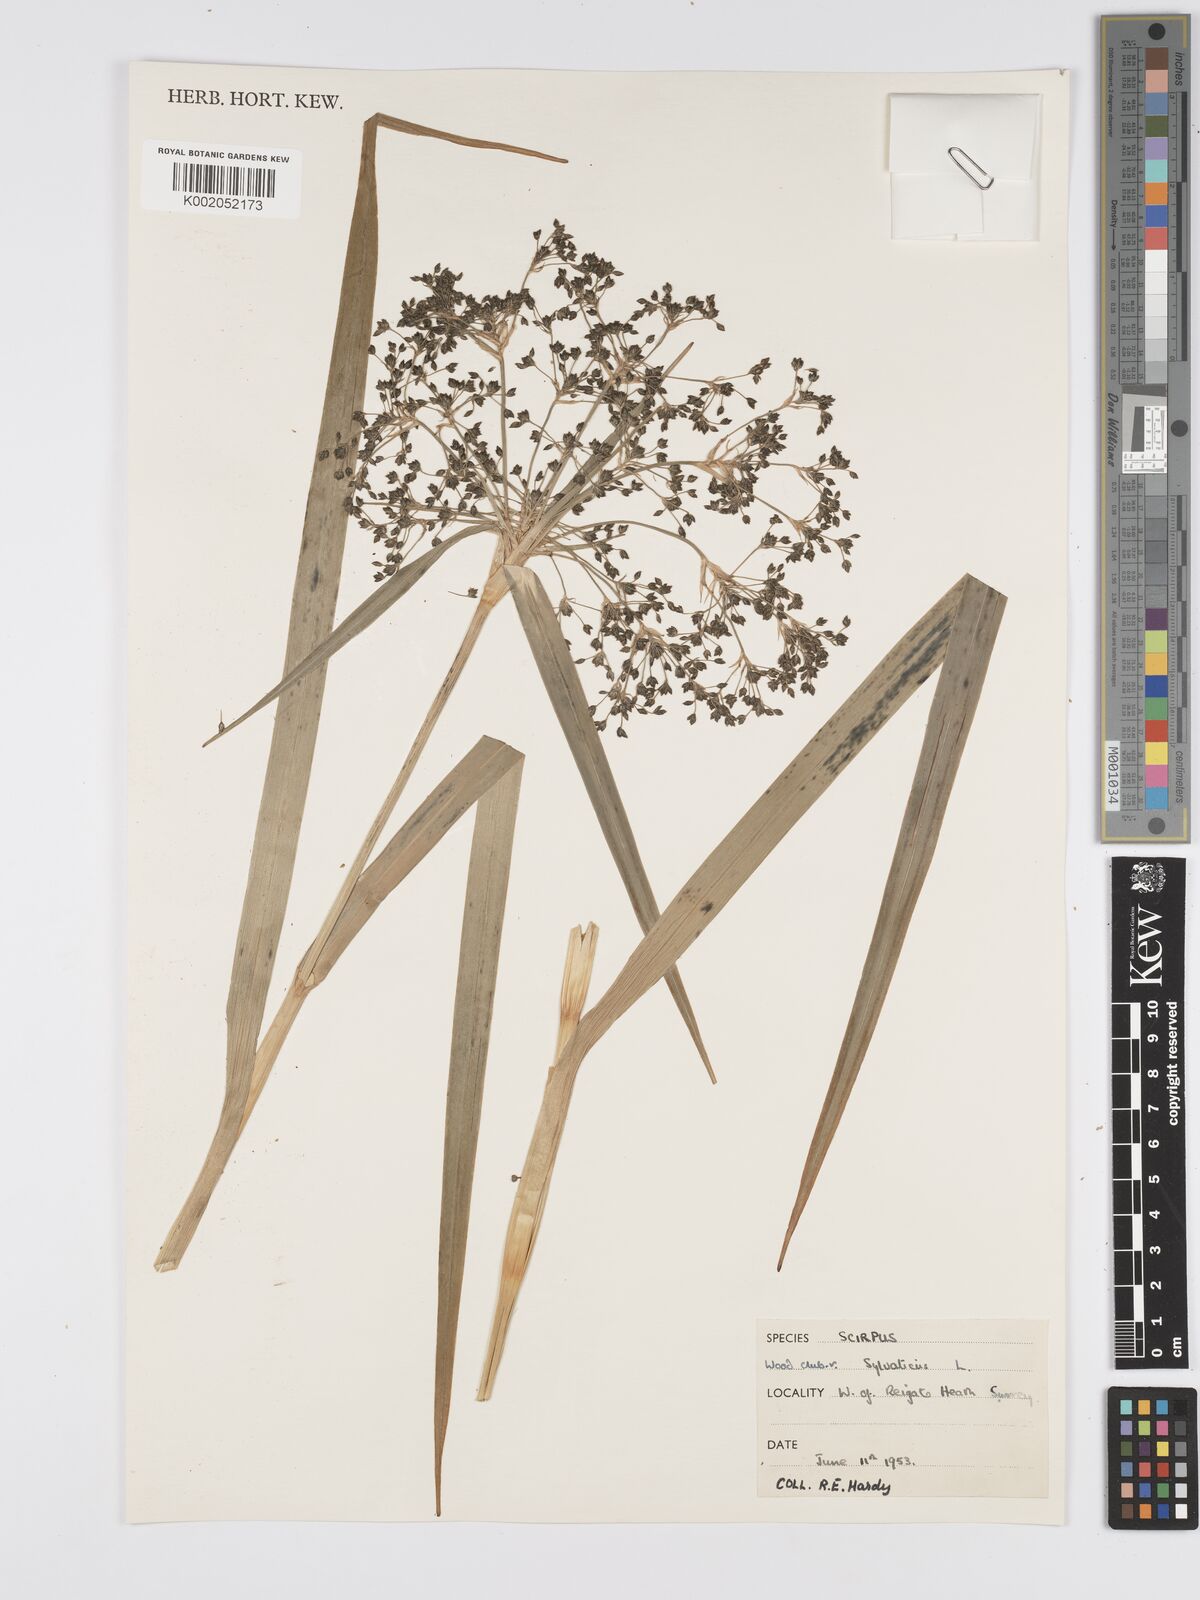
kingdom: Plantae
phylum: Tracheophyta
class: Liliopsida
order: Poales
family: Cyperaceae
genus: Scirpus
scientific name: Scirpus sylvaticus
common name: Wood club-rush
